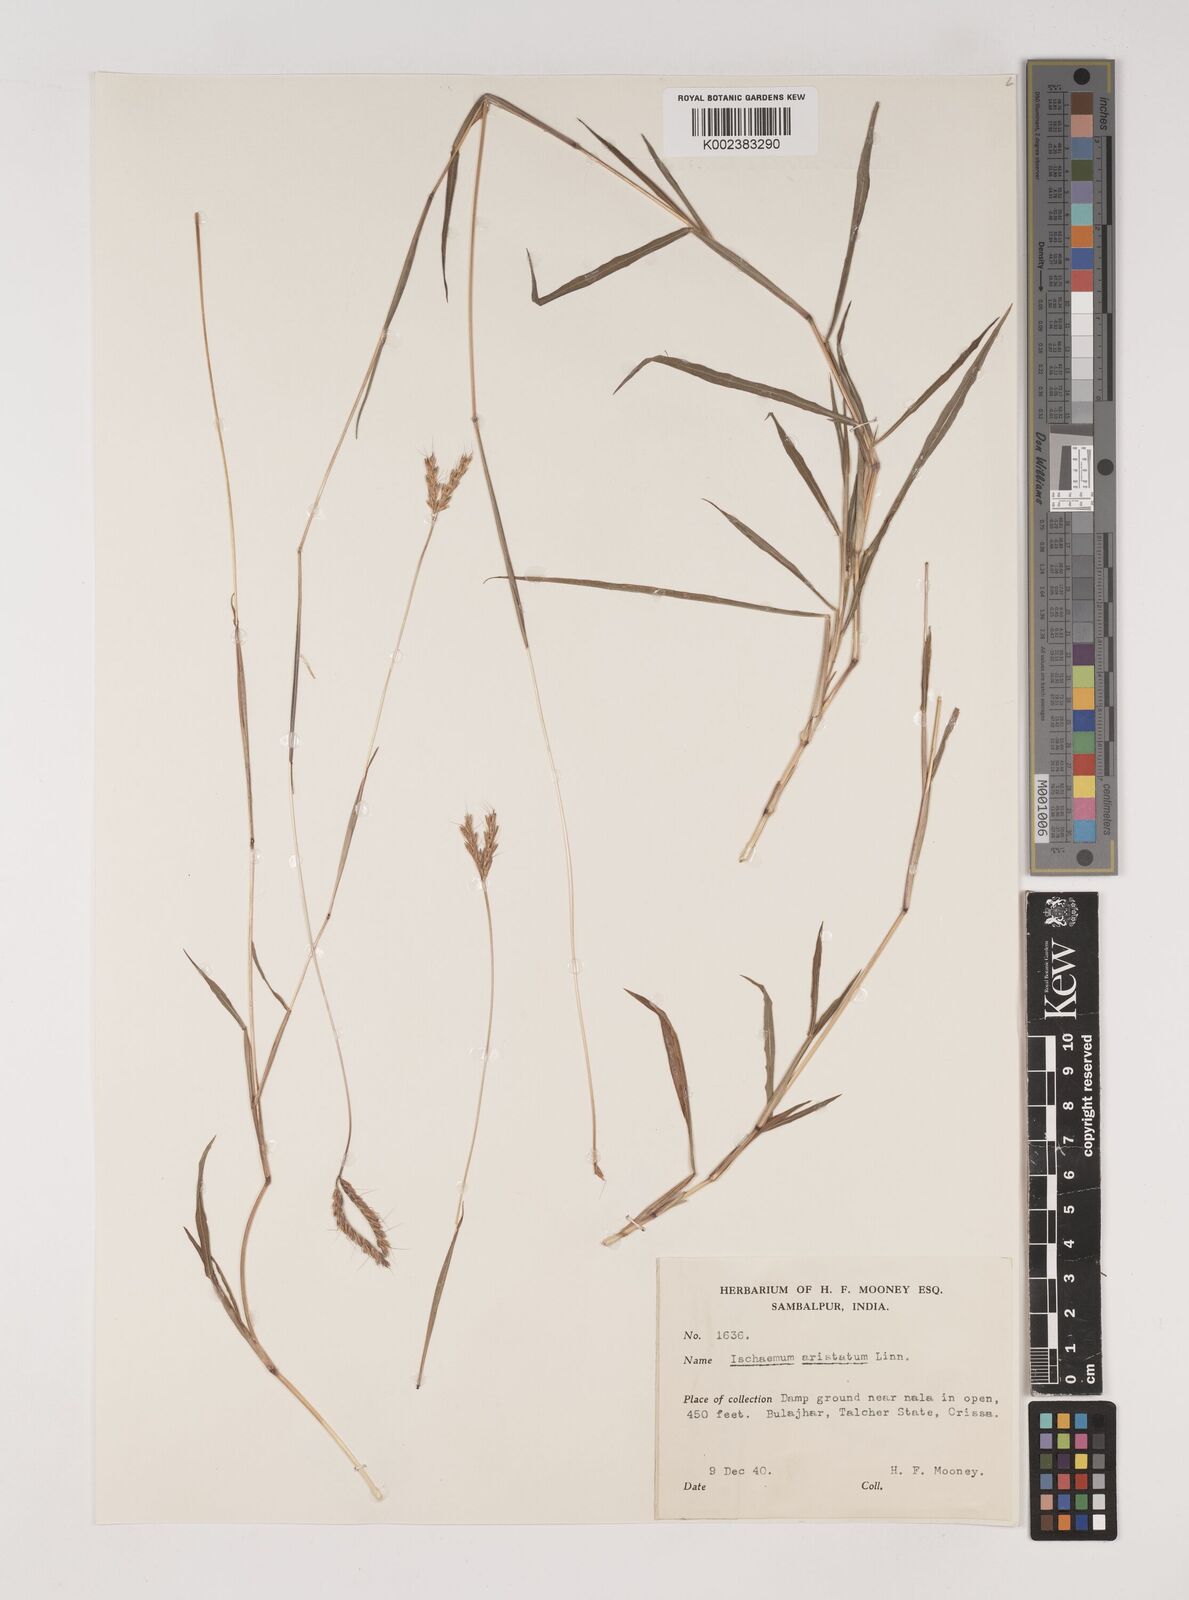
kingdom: Plantae
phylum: Tracheophyta
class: Liliopsida
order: Poales
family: Poaceae
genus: Polytrias
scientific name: Polytrias indica
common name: Indian murainagrass
